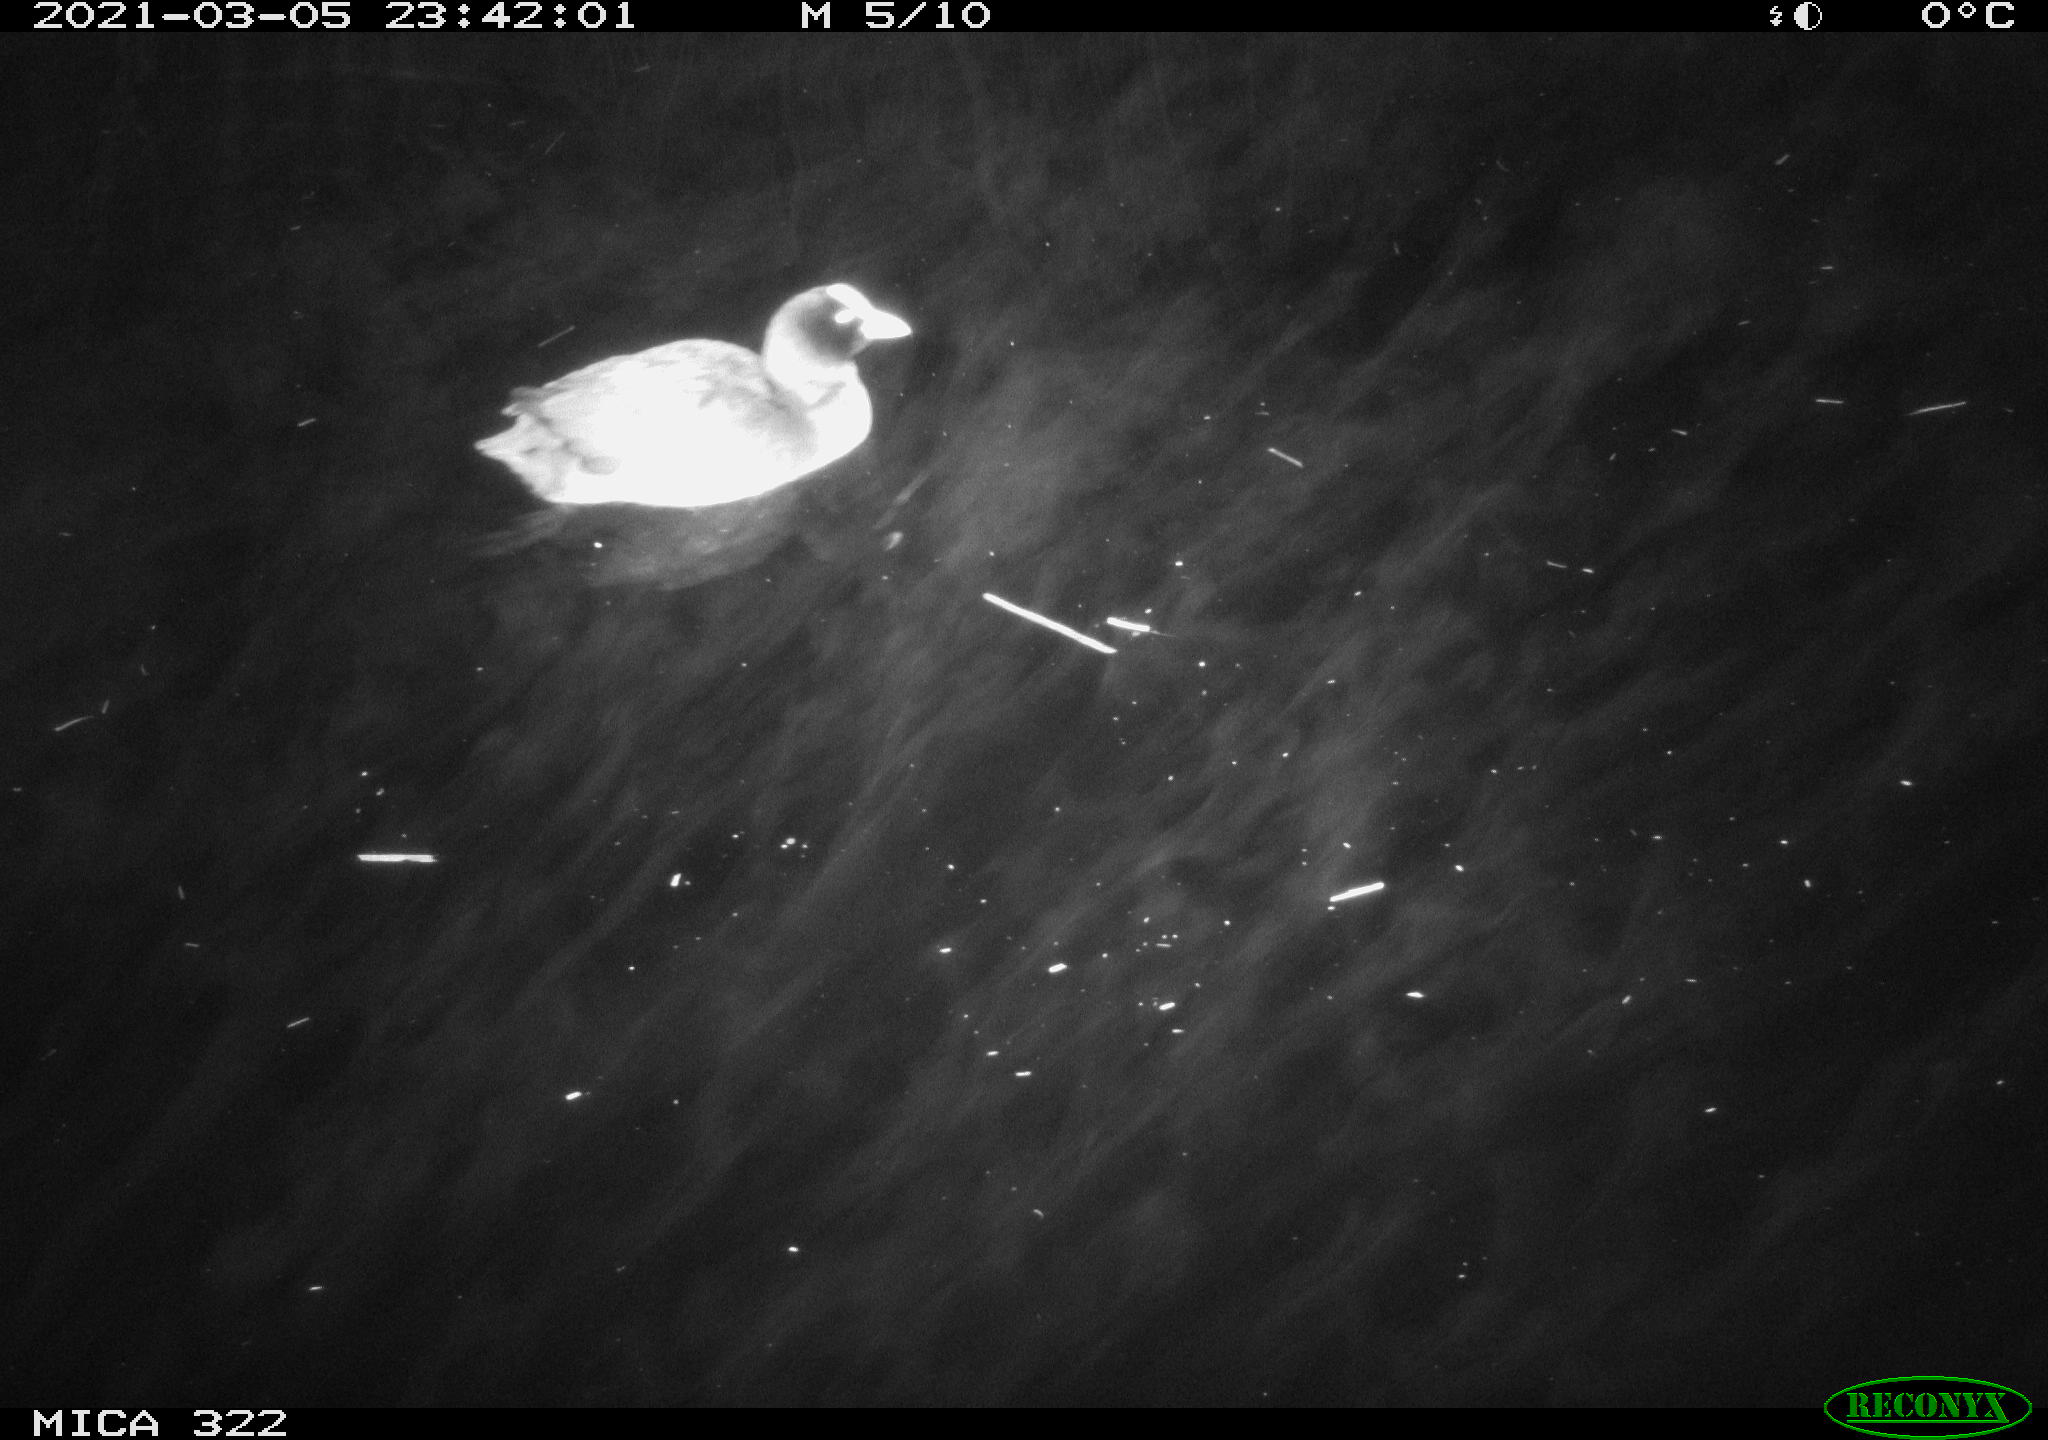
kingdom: Animalia
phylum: Chordata
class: Aves
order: Gruiformes
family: Rallidae
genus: Fulica
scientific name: Fulica atra
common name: Eurasian coot
